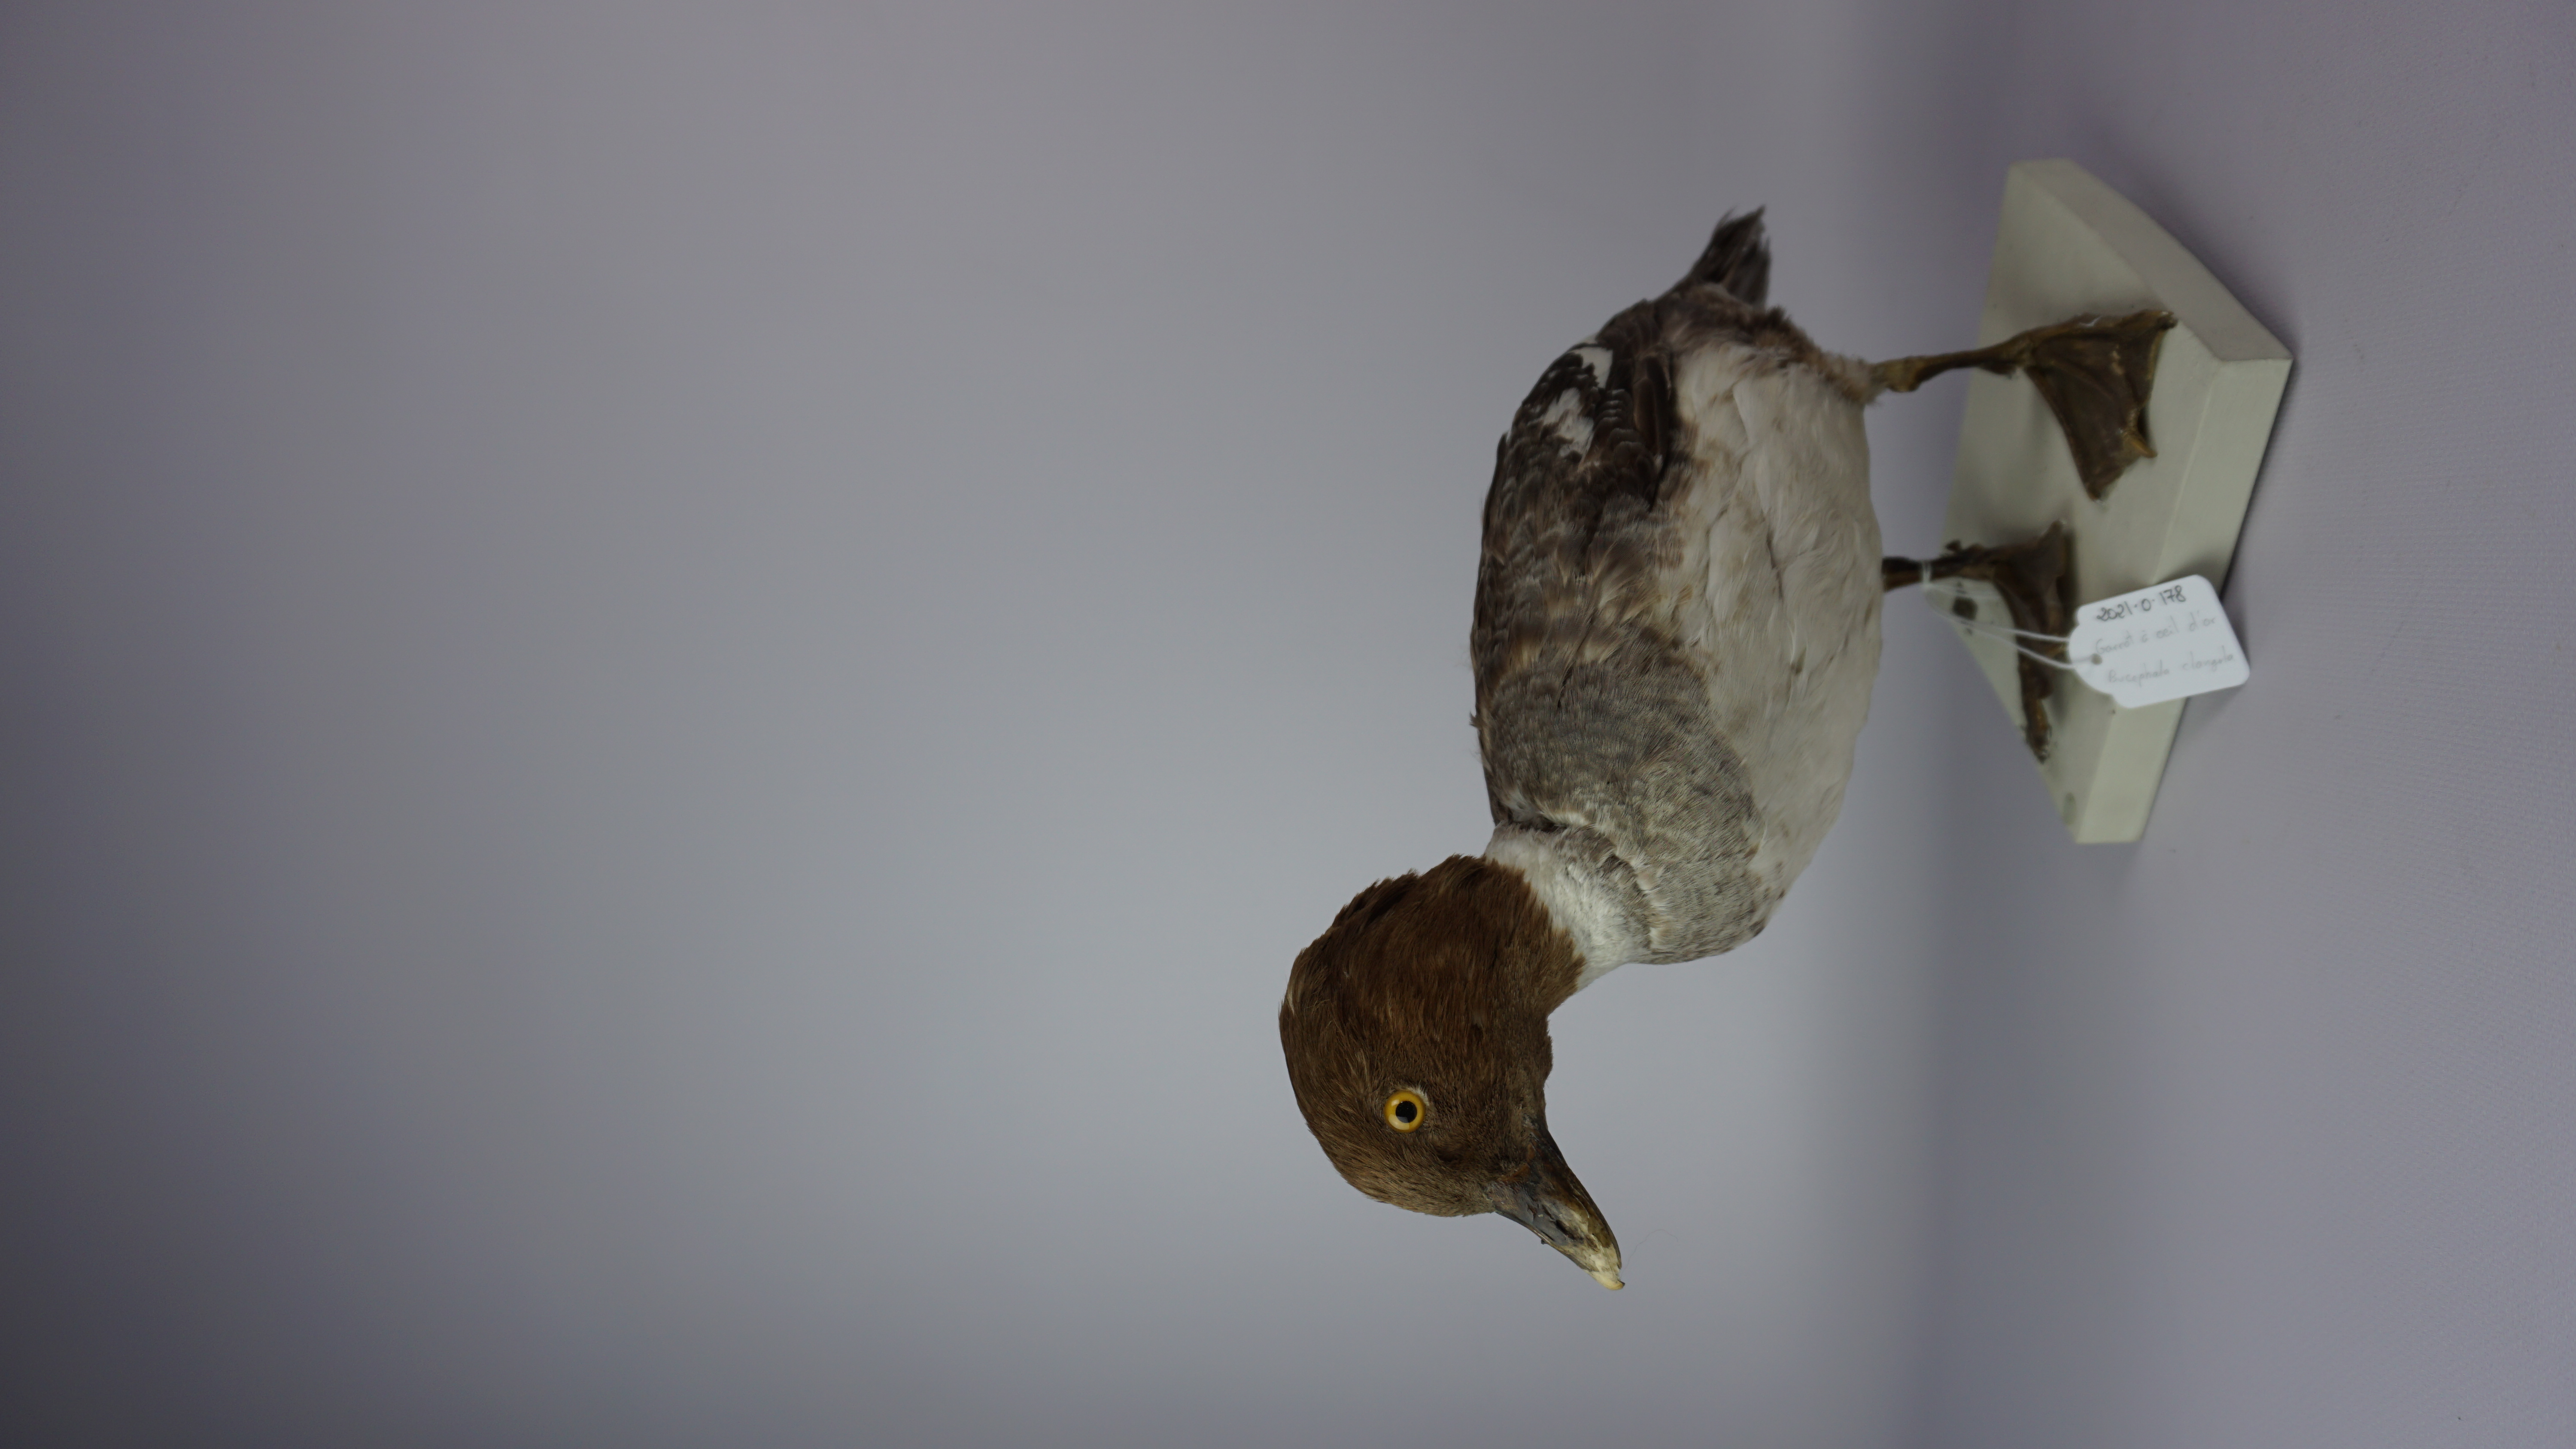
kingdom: Animalia
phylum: Chordata
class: Aves
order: Anseriformes
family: Anatidae
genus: Bucephala
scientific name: Bucephala clangula
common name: Common goldeneye
